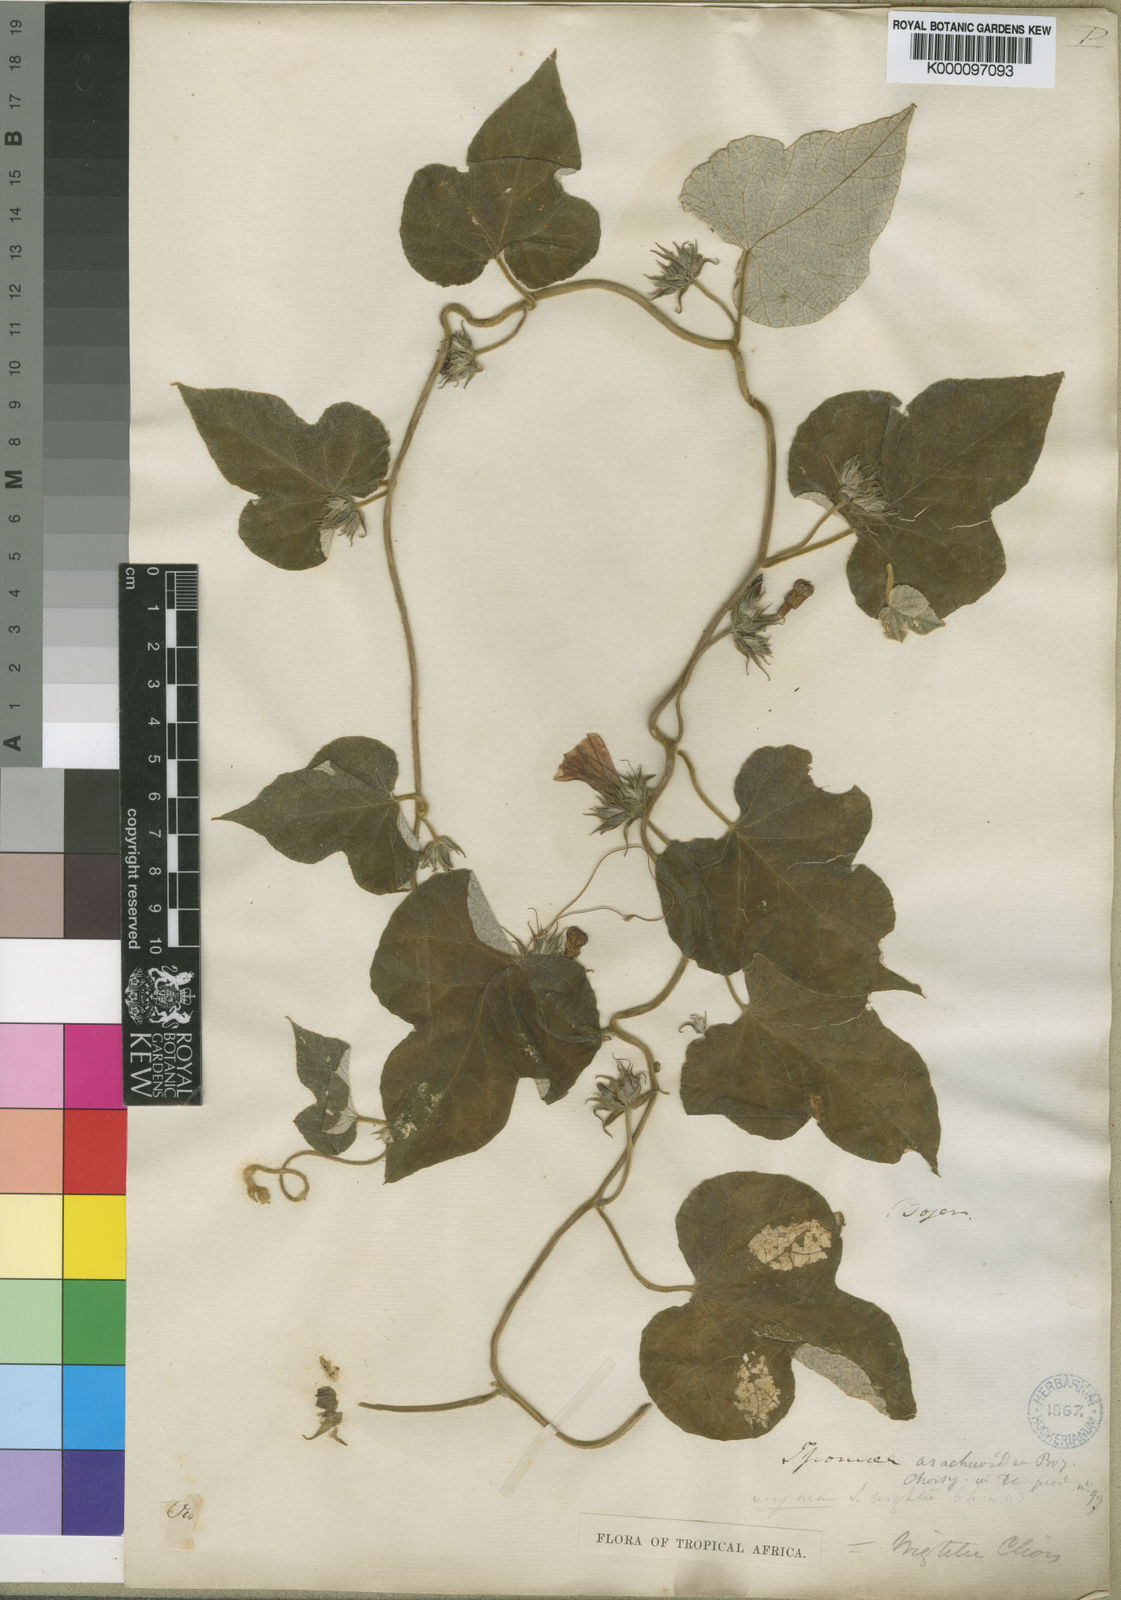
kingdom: Plantae
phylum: Tracheophyta
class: Magnoliopsida
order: Solanales
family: Convolvulaceae
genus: Ipomoea
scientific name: Ipomoea wightii
